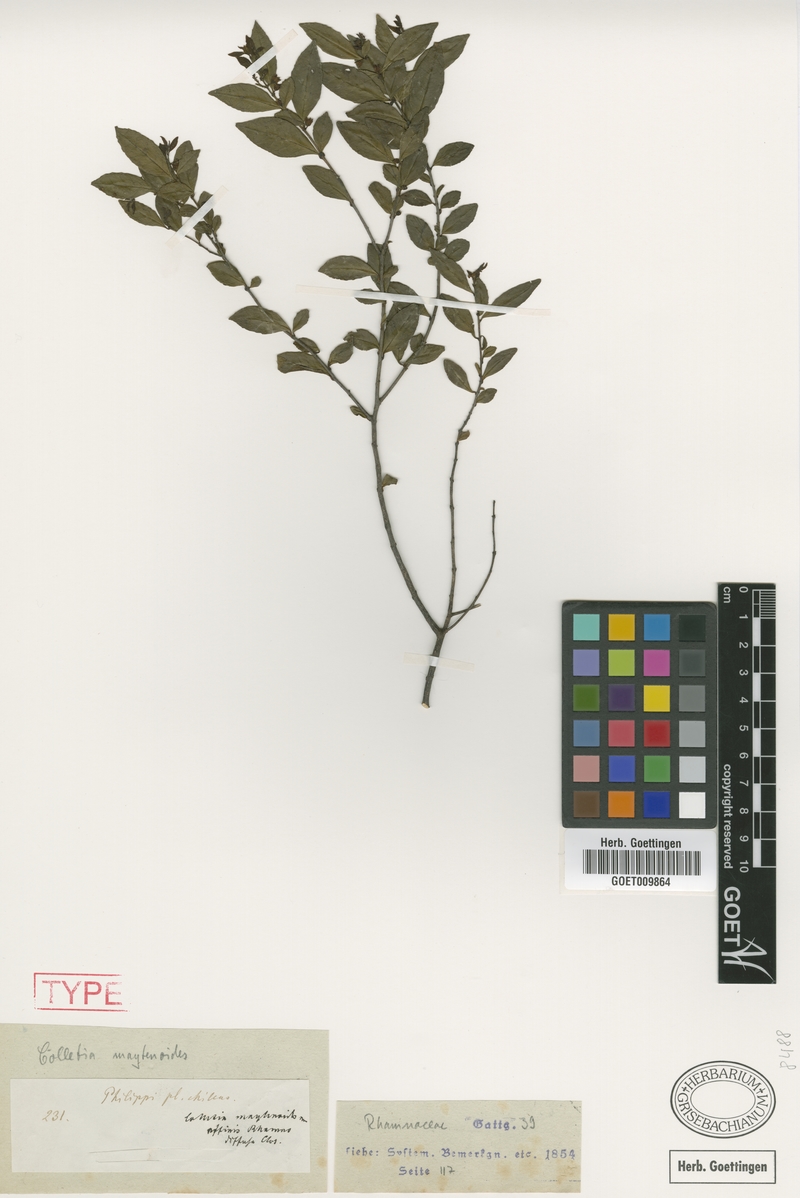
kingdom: Plantae
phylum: Tracheophyta
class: Magnoliopsida
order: Rosales
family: Rhamnaceae
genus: Condalia
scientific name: Condalia maytenoides
